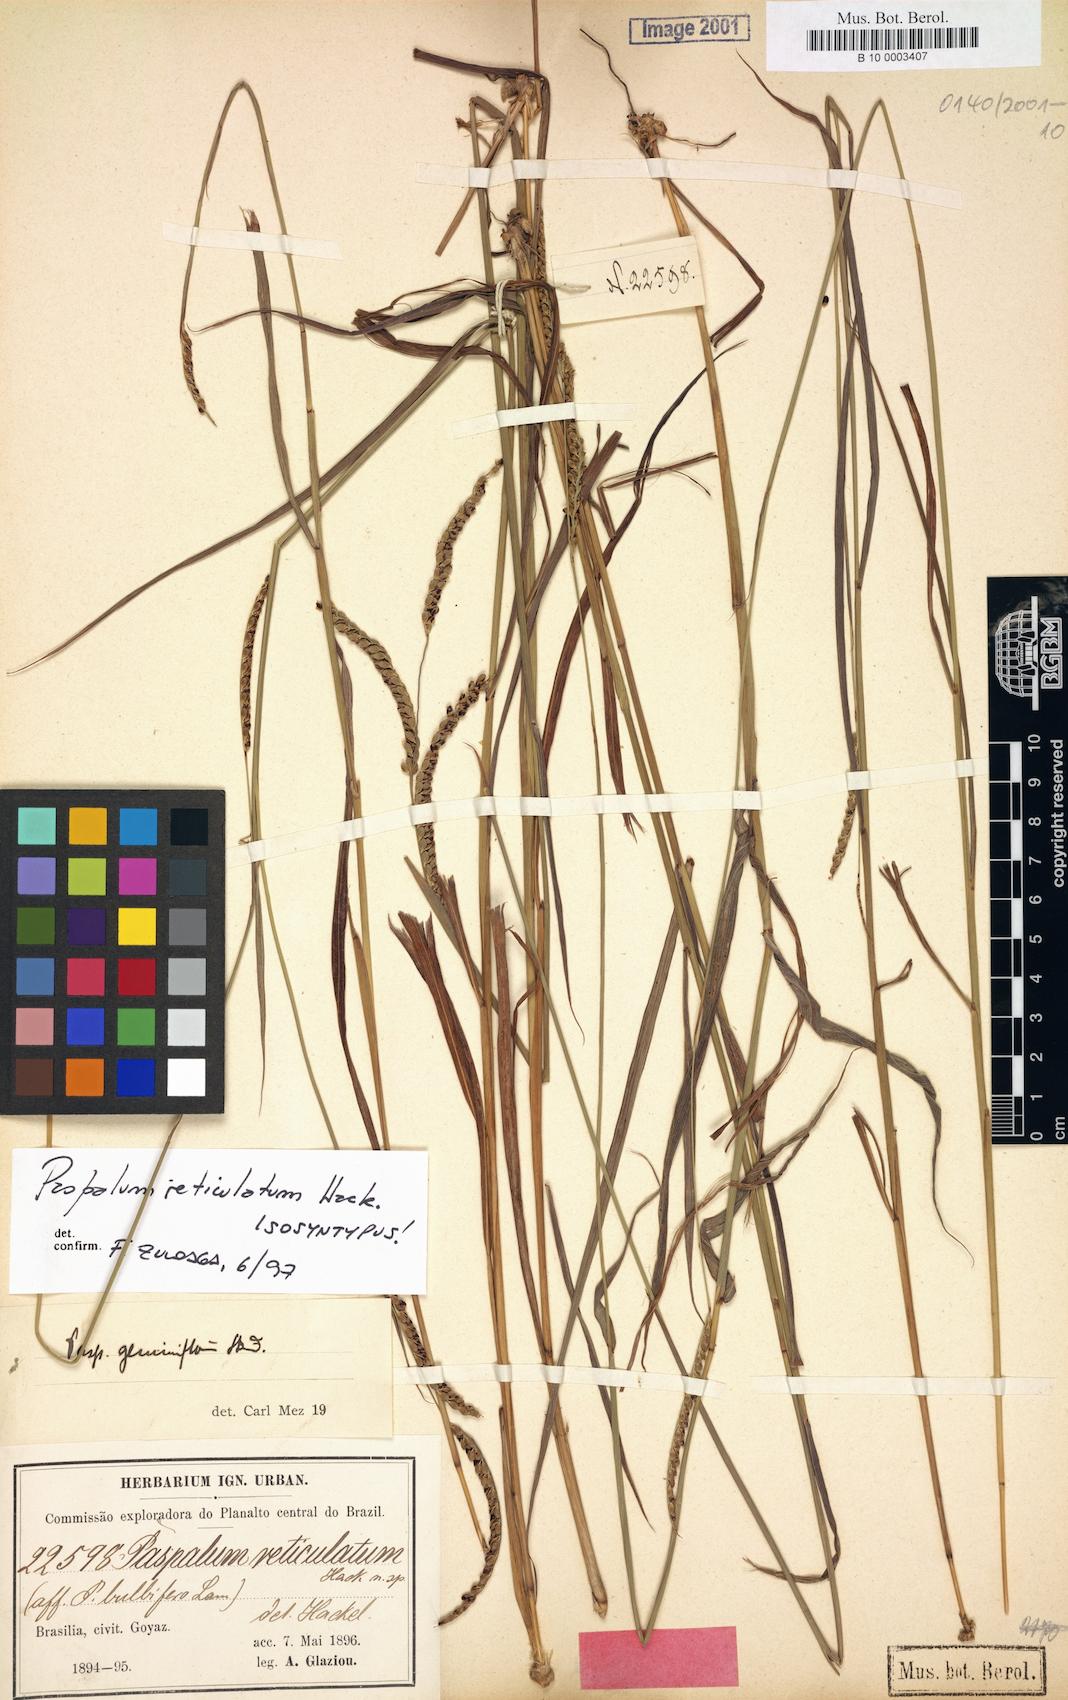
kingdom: Plantae
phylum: Tracheophyta
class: Liliopsida
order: Poales
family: Poaceae
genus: Paspalum
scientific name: Paspalum geminiflorum
